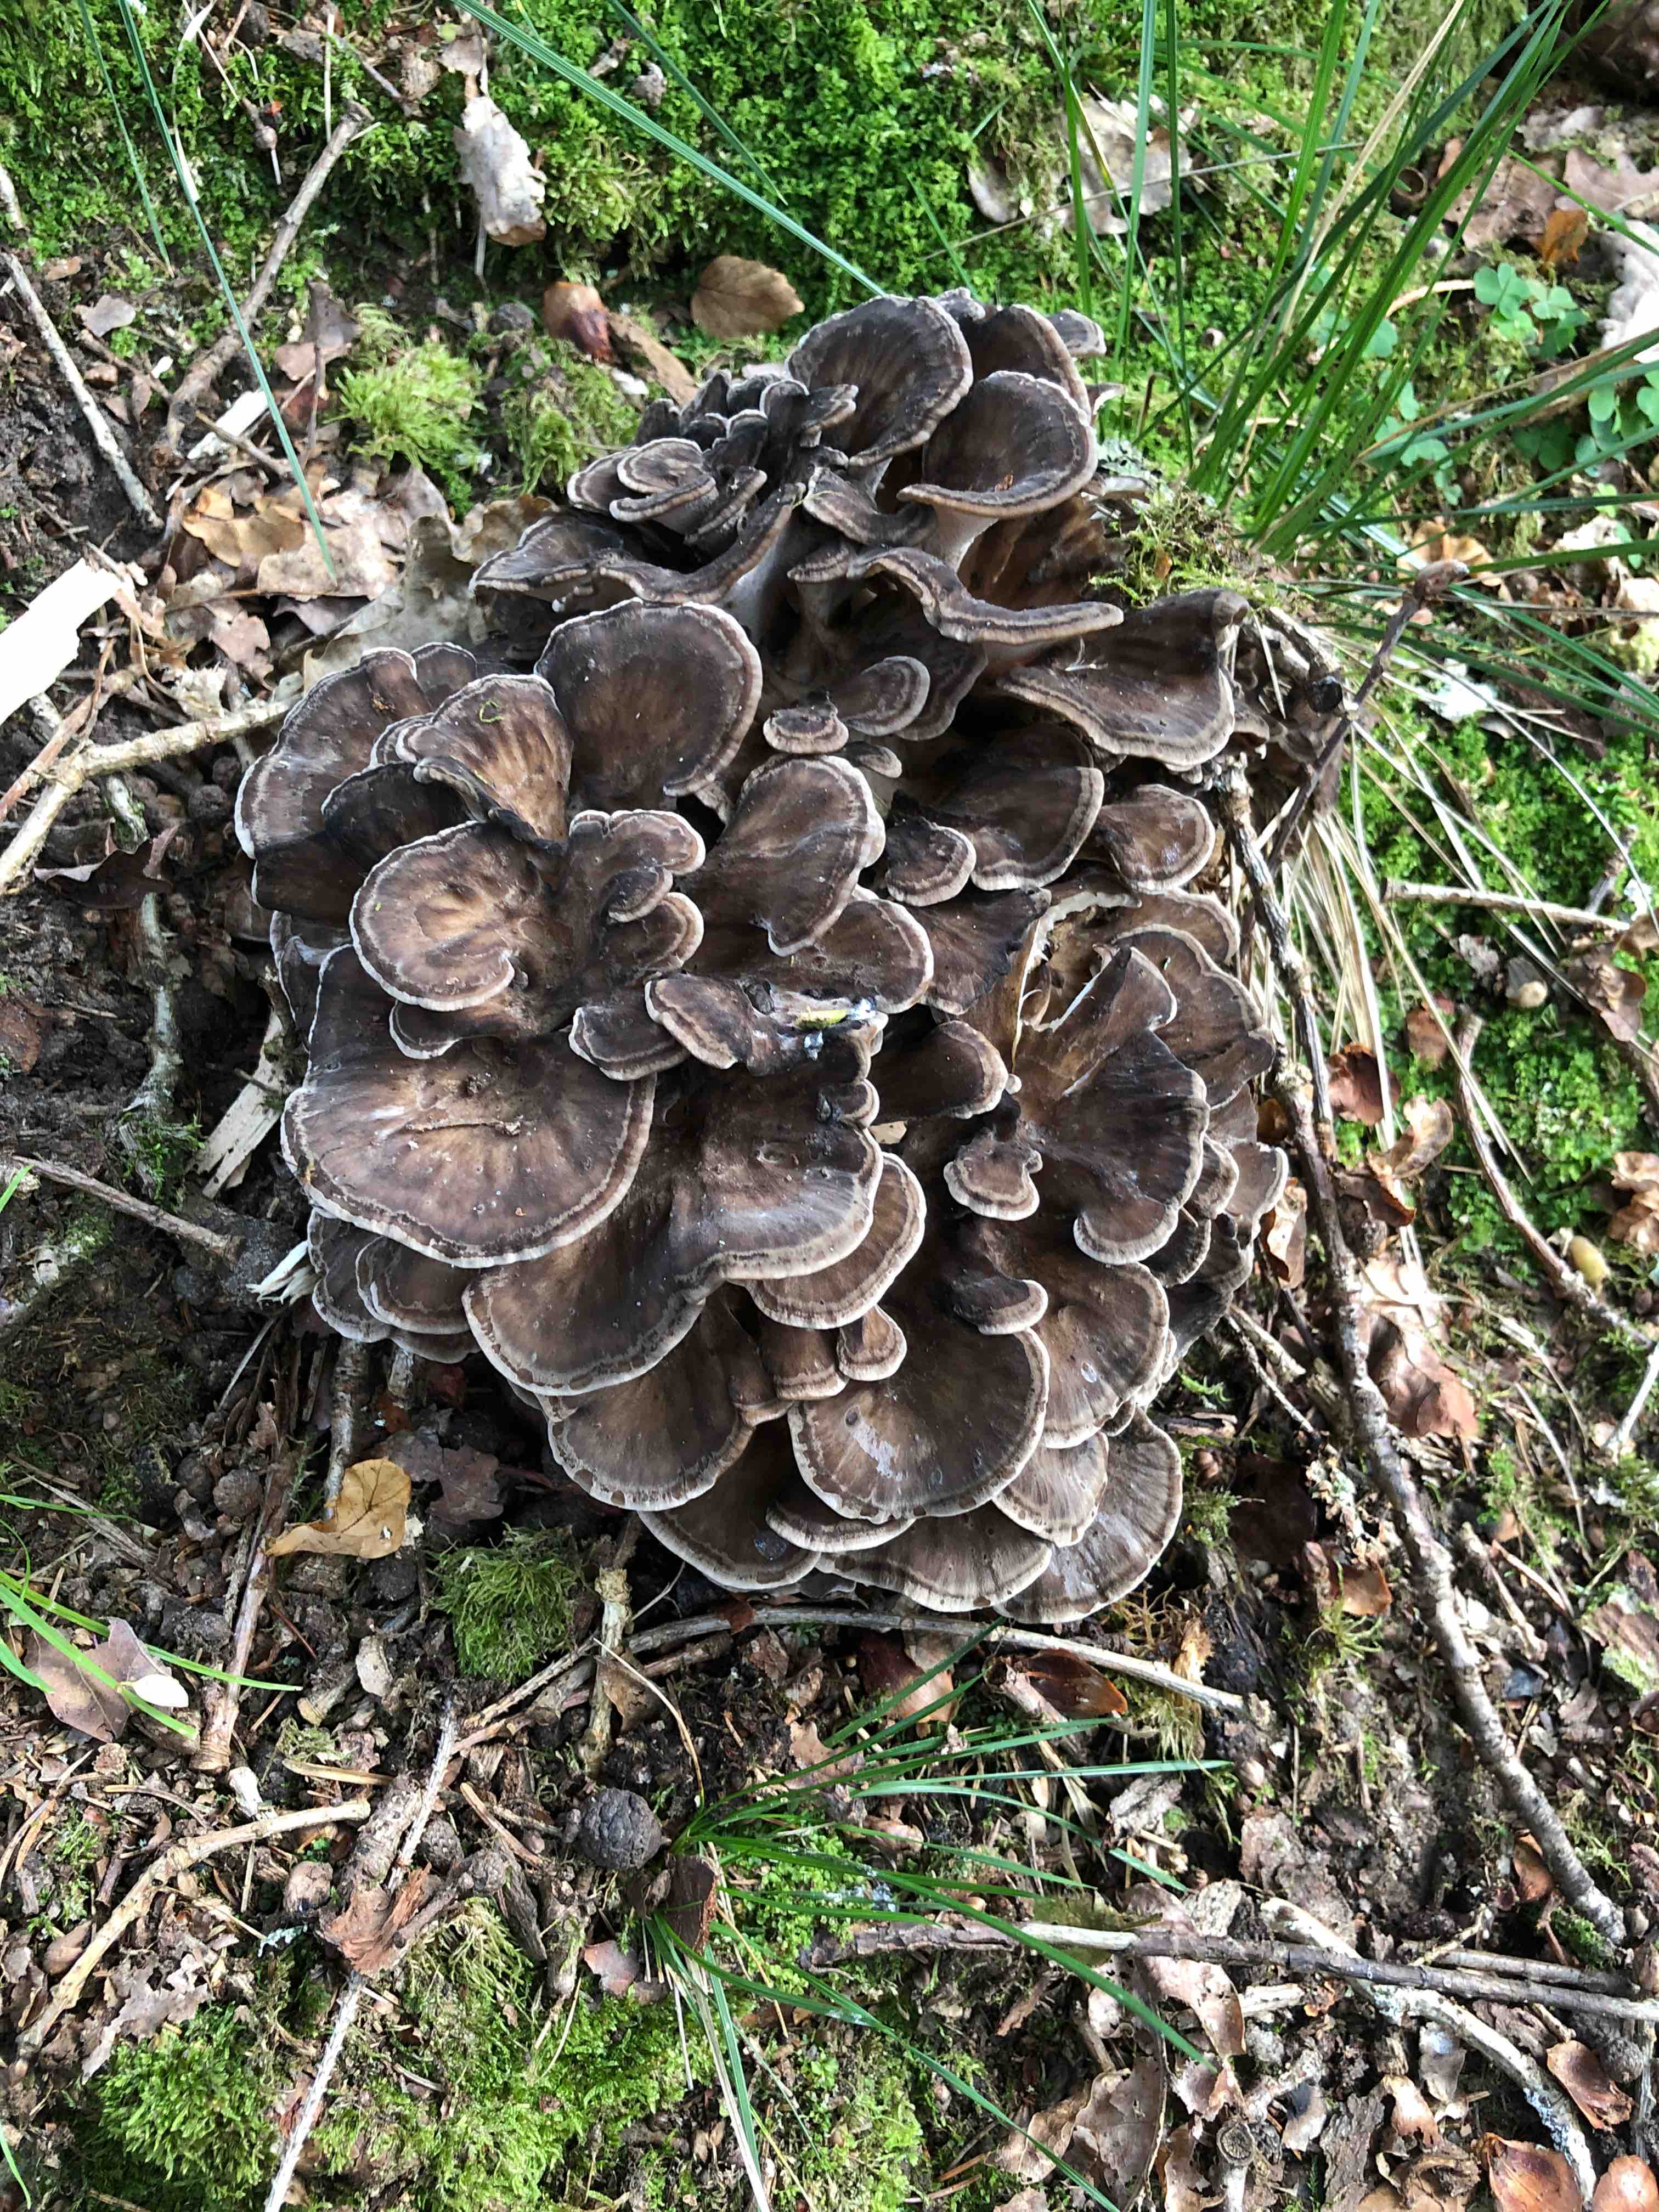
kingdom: Fungi
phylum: Basidiomycota
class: Agaricomycetes
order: Polyporales
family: Grifolaceae
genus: Grifola
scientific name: Grifola frondosa
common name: tueporesvamp
